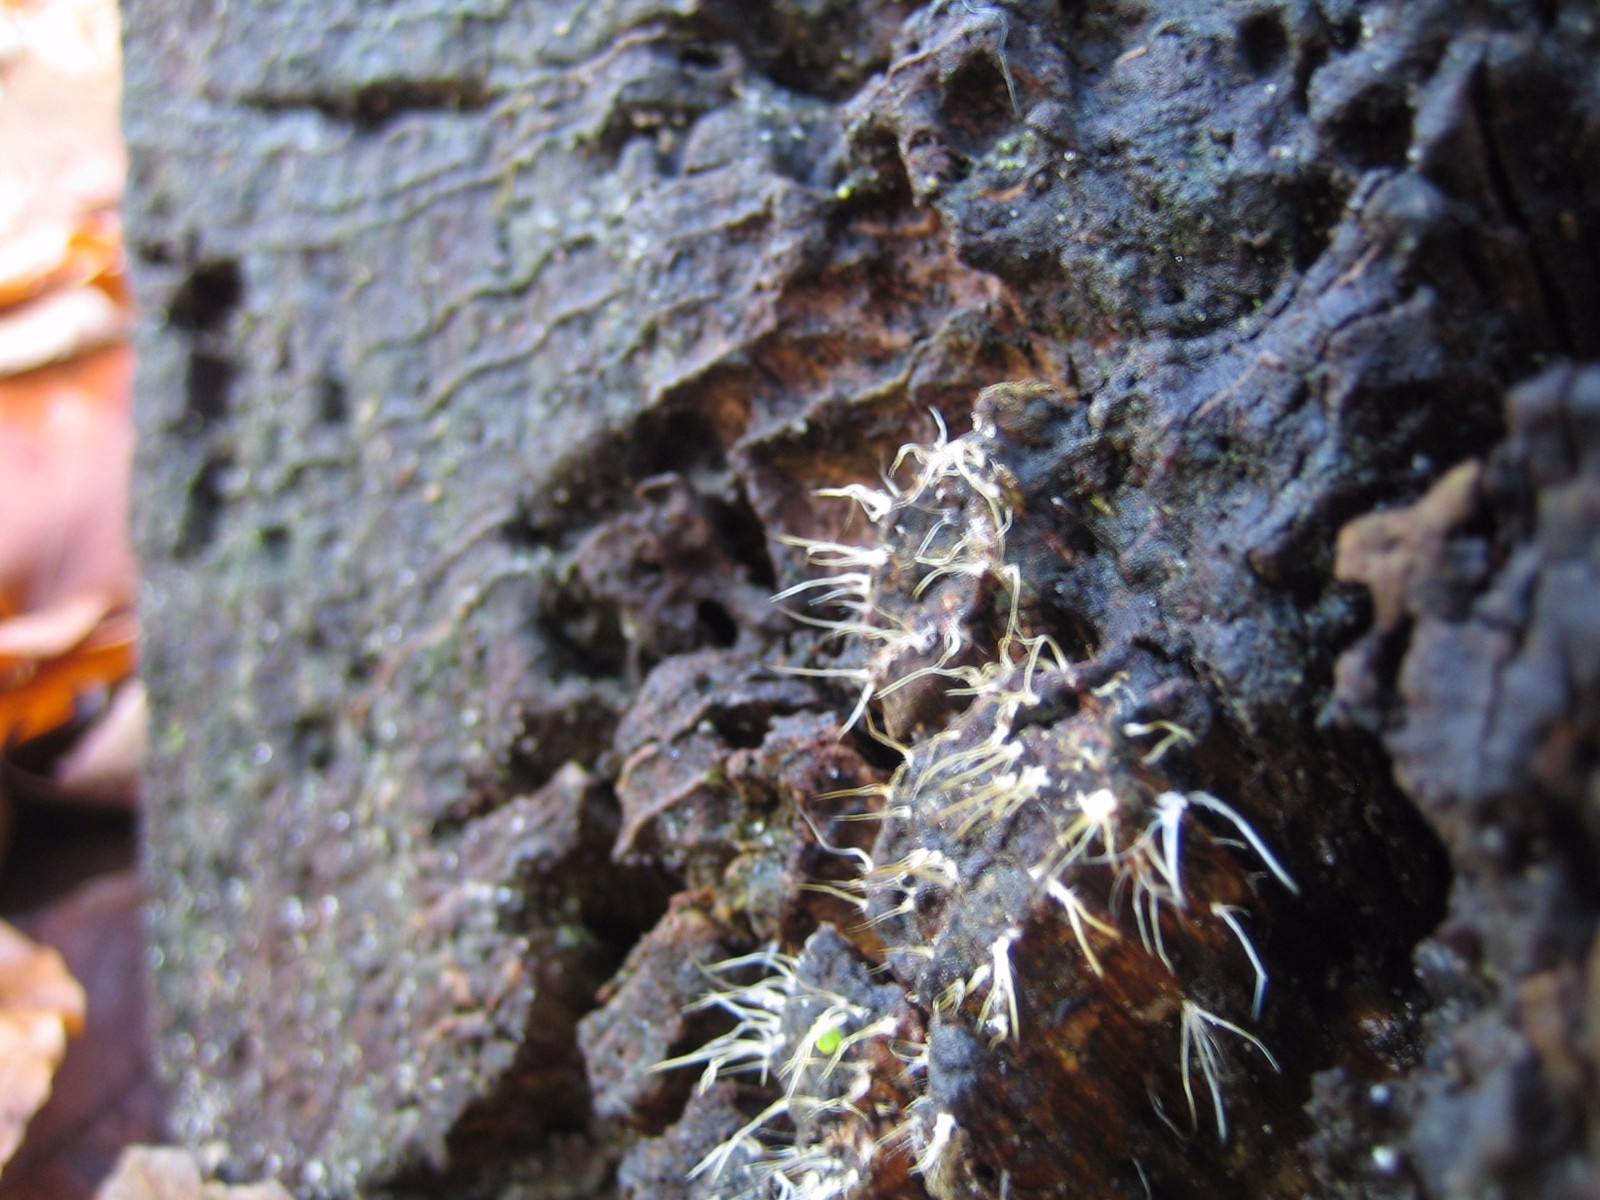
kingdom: Fungi
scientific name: Fungi
